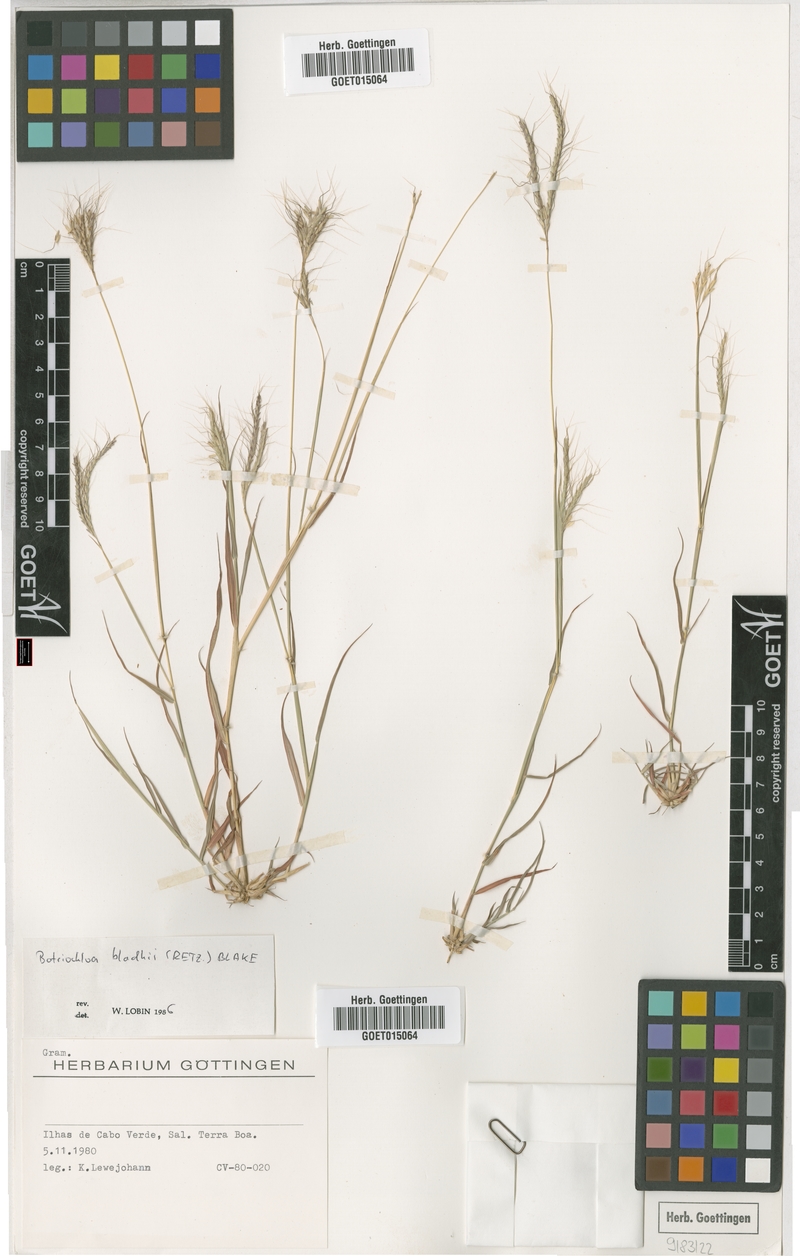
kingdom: Plantae
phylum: Tracheophyta
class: Liliopsida
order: Poales
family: Poaceae
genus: Bothriochloa
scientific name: Bothriochloa bladhii
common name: Caucasian bluestem
